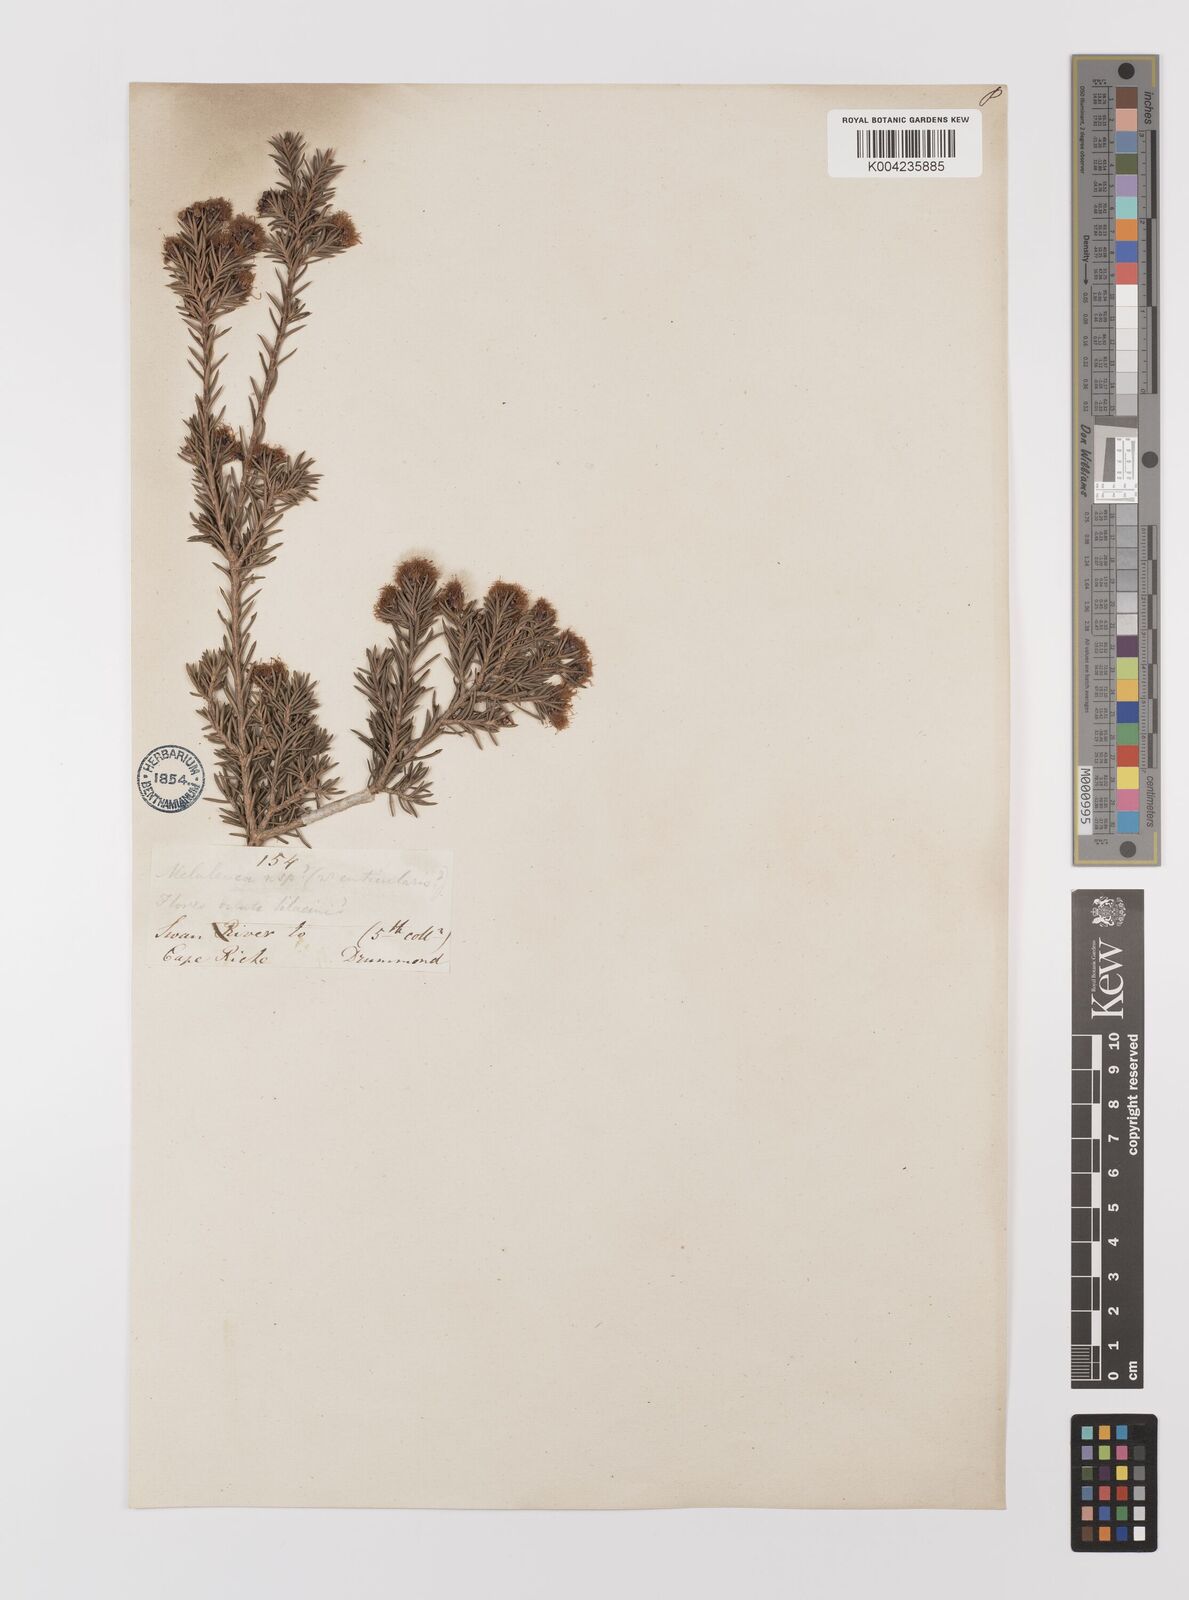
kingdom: Plantae
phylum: Tracheophyta
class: Magnoliopsida
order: Myrtales
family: Myrtaceae
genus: Melaleuca
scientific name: Melaleuca cuticularis
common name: Saltwater paperbark
